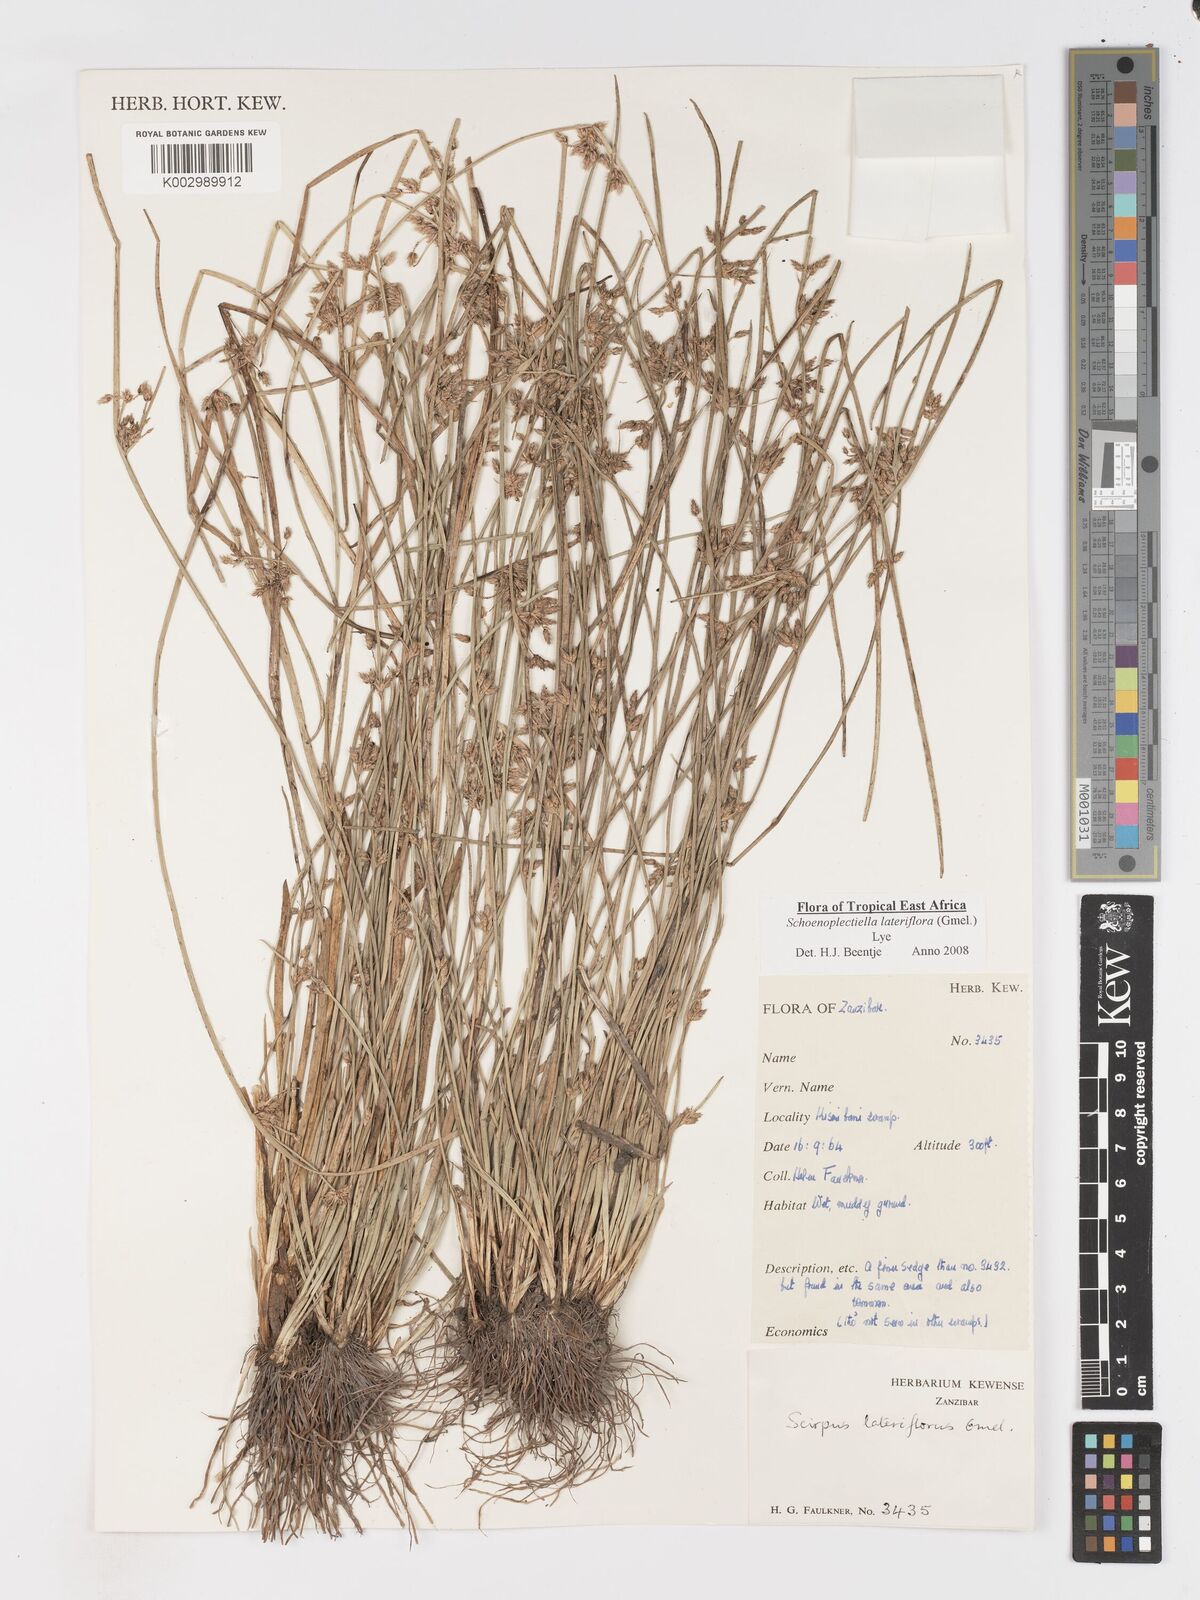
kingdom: Plantae
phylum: Tracheophyta
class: Liliopsida
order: Poales
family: Cyperaceae
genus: Schoenoplectiella
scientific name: Schoenoplectiella lateriflora
